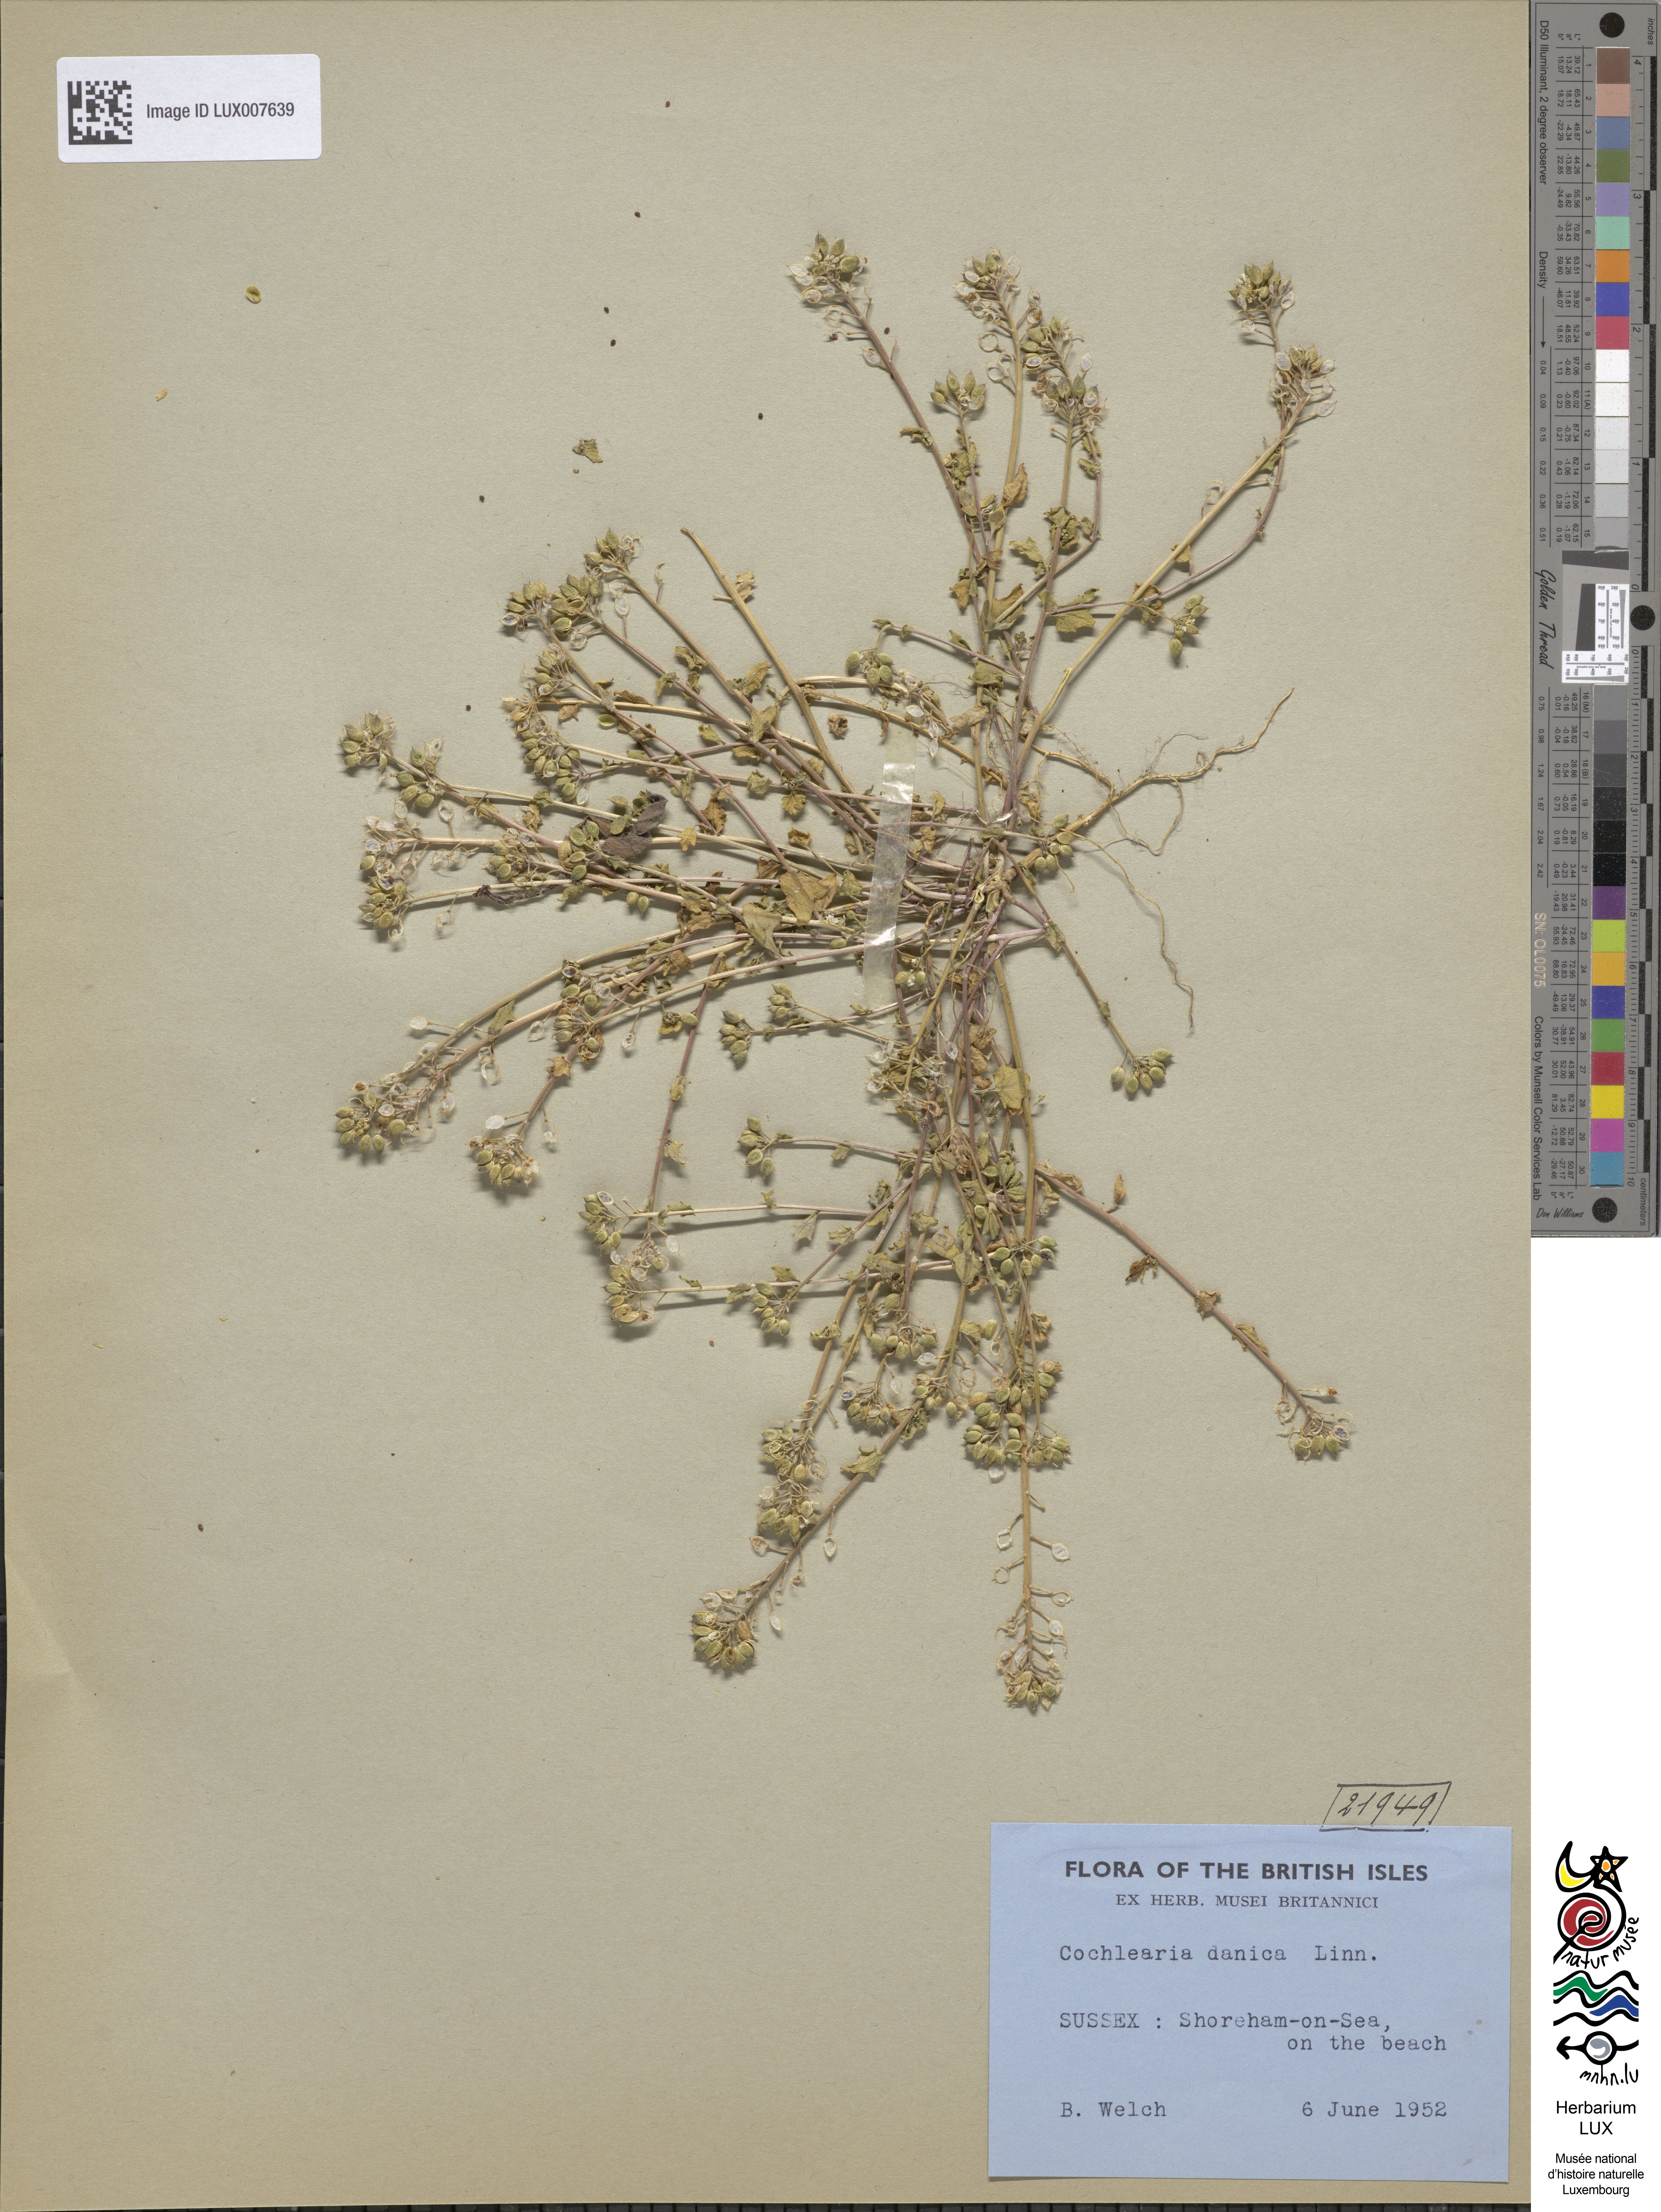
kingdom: Plantae
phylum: Tracheophyta
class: Magnoliopsida
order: Brassicales
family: Brassicaceae
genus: Cochlearia
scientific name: Cochlearia danica
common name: Early scurvygrass
